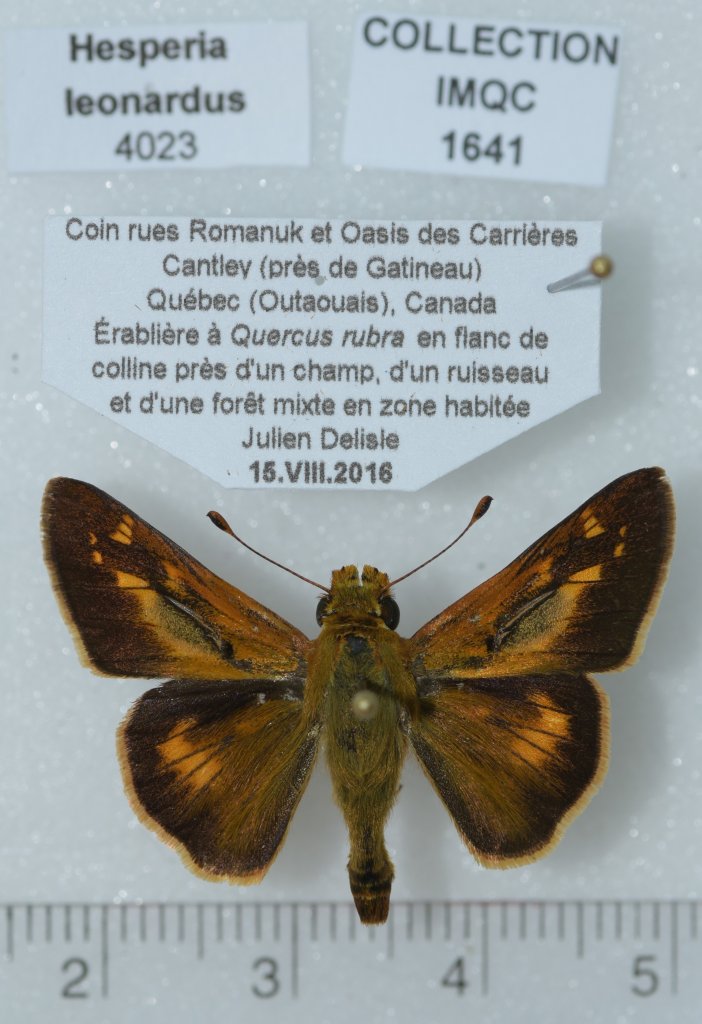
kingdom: Animalia
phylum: Arthropoda
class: Insecta
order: Lepidoptera
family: Hesperiidae
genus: Hesperia
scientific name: Hesperia leonardus
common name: Leonard's Skipper
